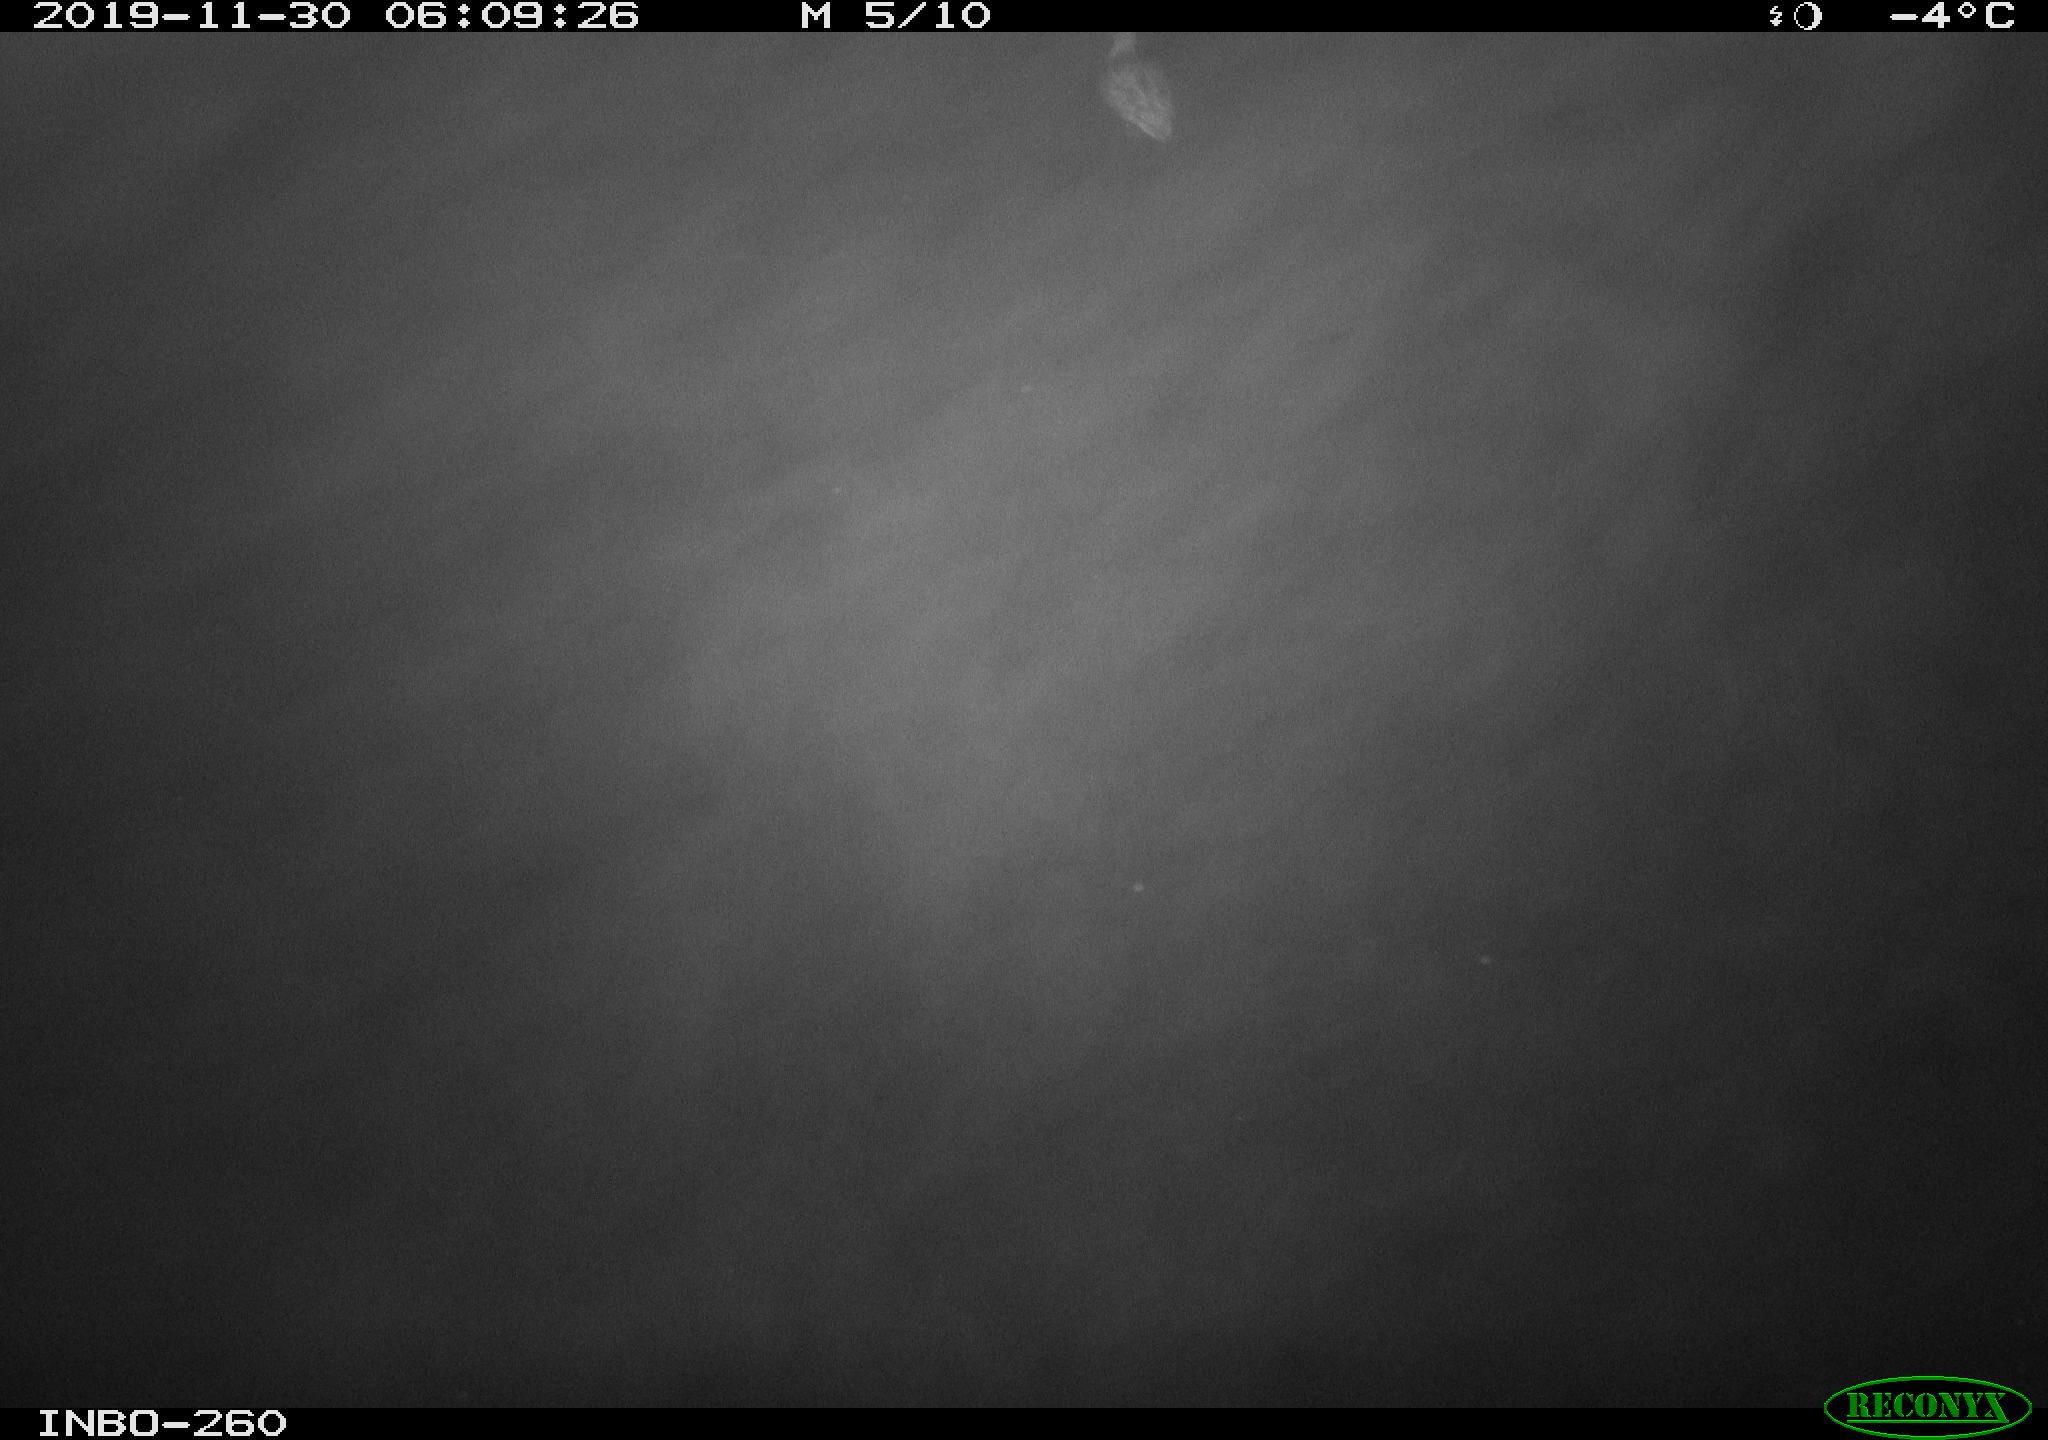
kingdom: Animalia
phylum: Chordata
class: Aves
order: Anseriformes
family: Anatidae
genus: Anas
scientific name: Anas platyrhynchos
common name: Mallard
